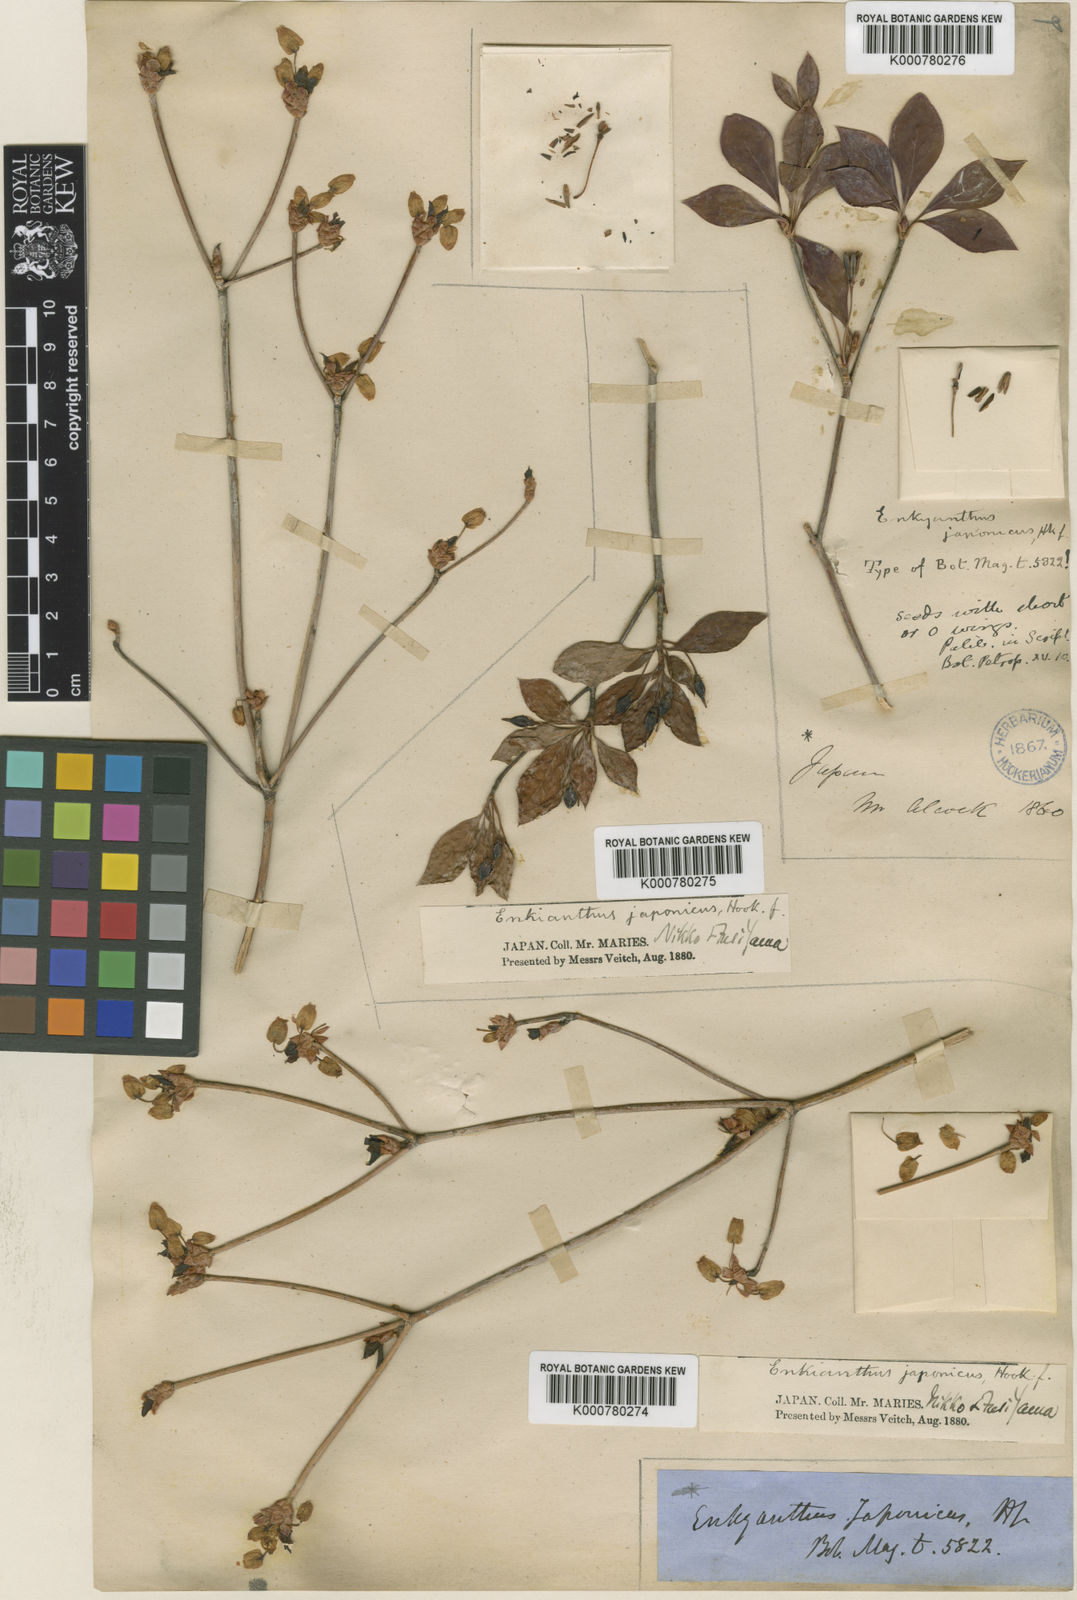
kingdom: Plantae
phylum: Tracheophyta
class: Magnoliopsida
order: Ericales
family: Ericaceae
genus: Enkianthus
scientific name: Enkianthus perulatus
